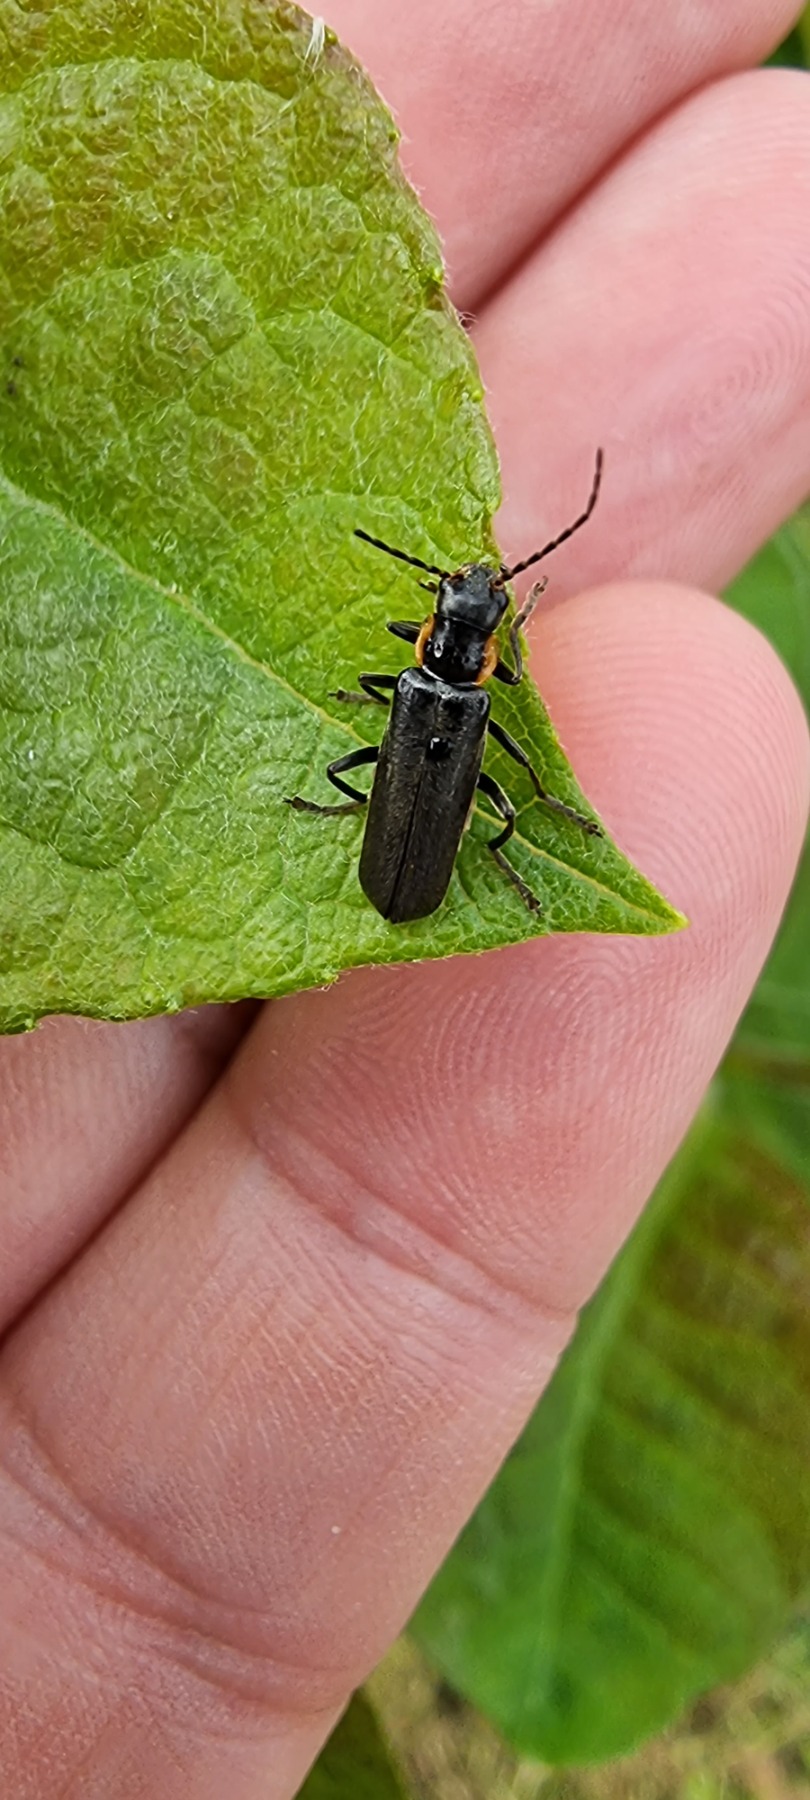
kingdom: Animalia
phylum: Arthropoda
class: Insecta
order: Coleoptera
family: Cantharidae
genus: Cantharis
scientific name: Cantharis obscura
